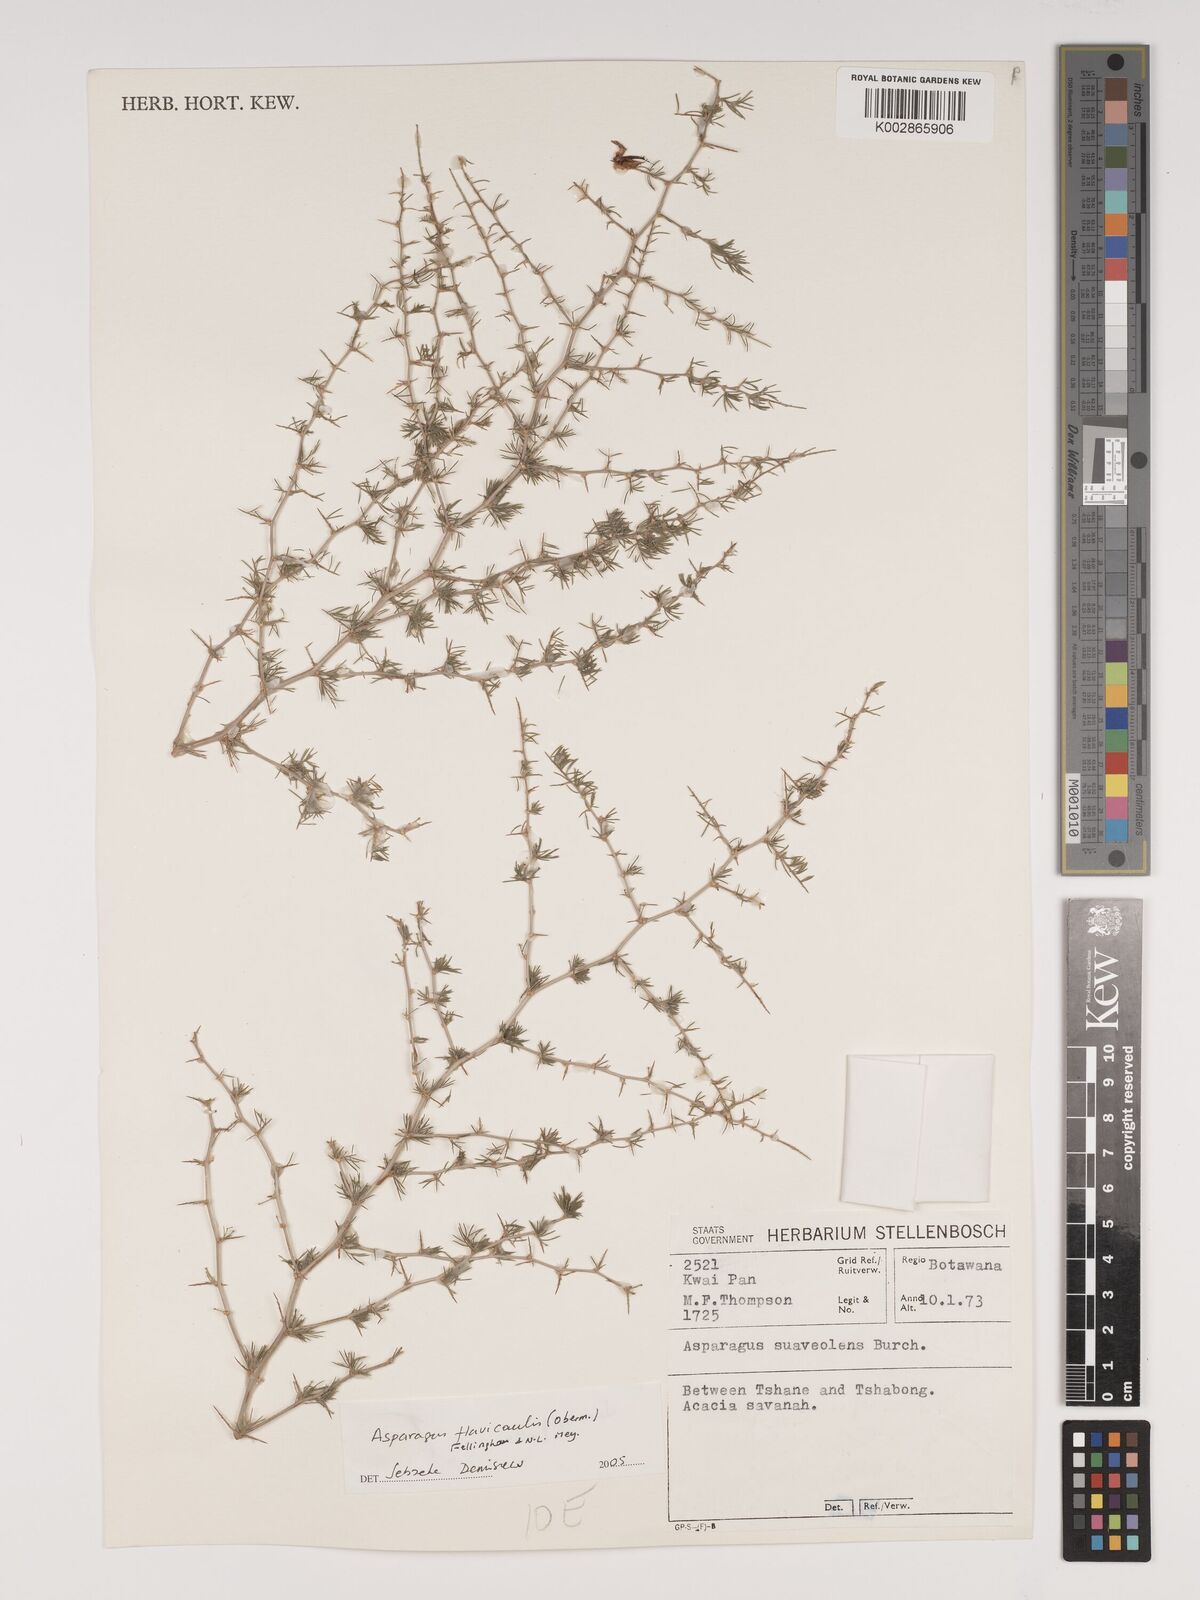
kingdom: Plantae
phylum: Tracheophyta
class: Liliopsida
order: Asparagales
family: Asparagaceae
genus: Asparagus
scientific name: Asparagus flavicaulis
